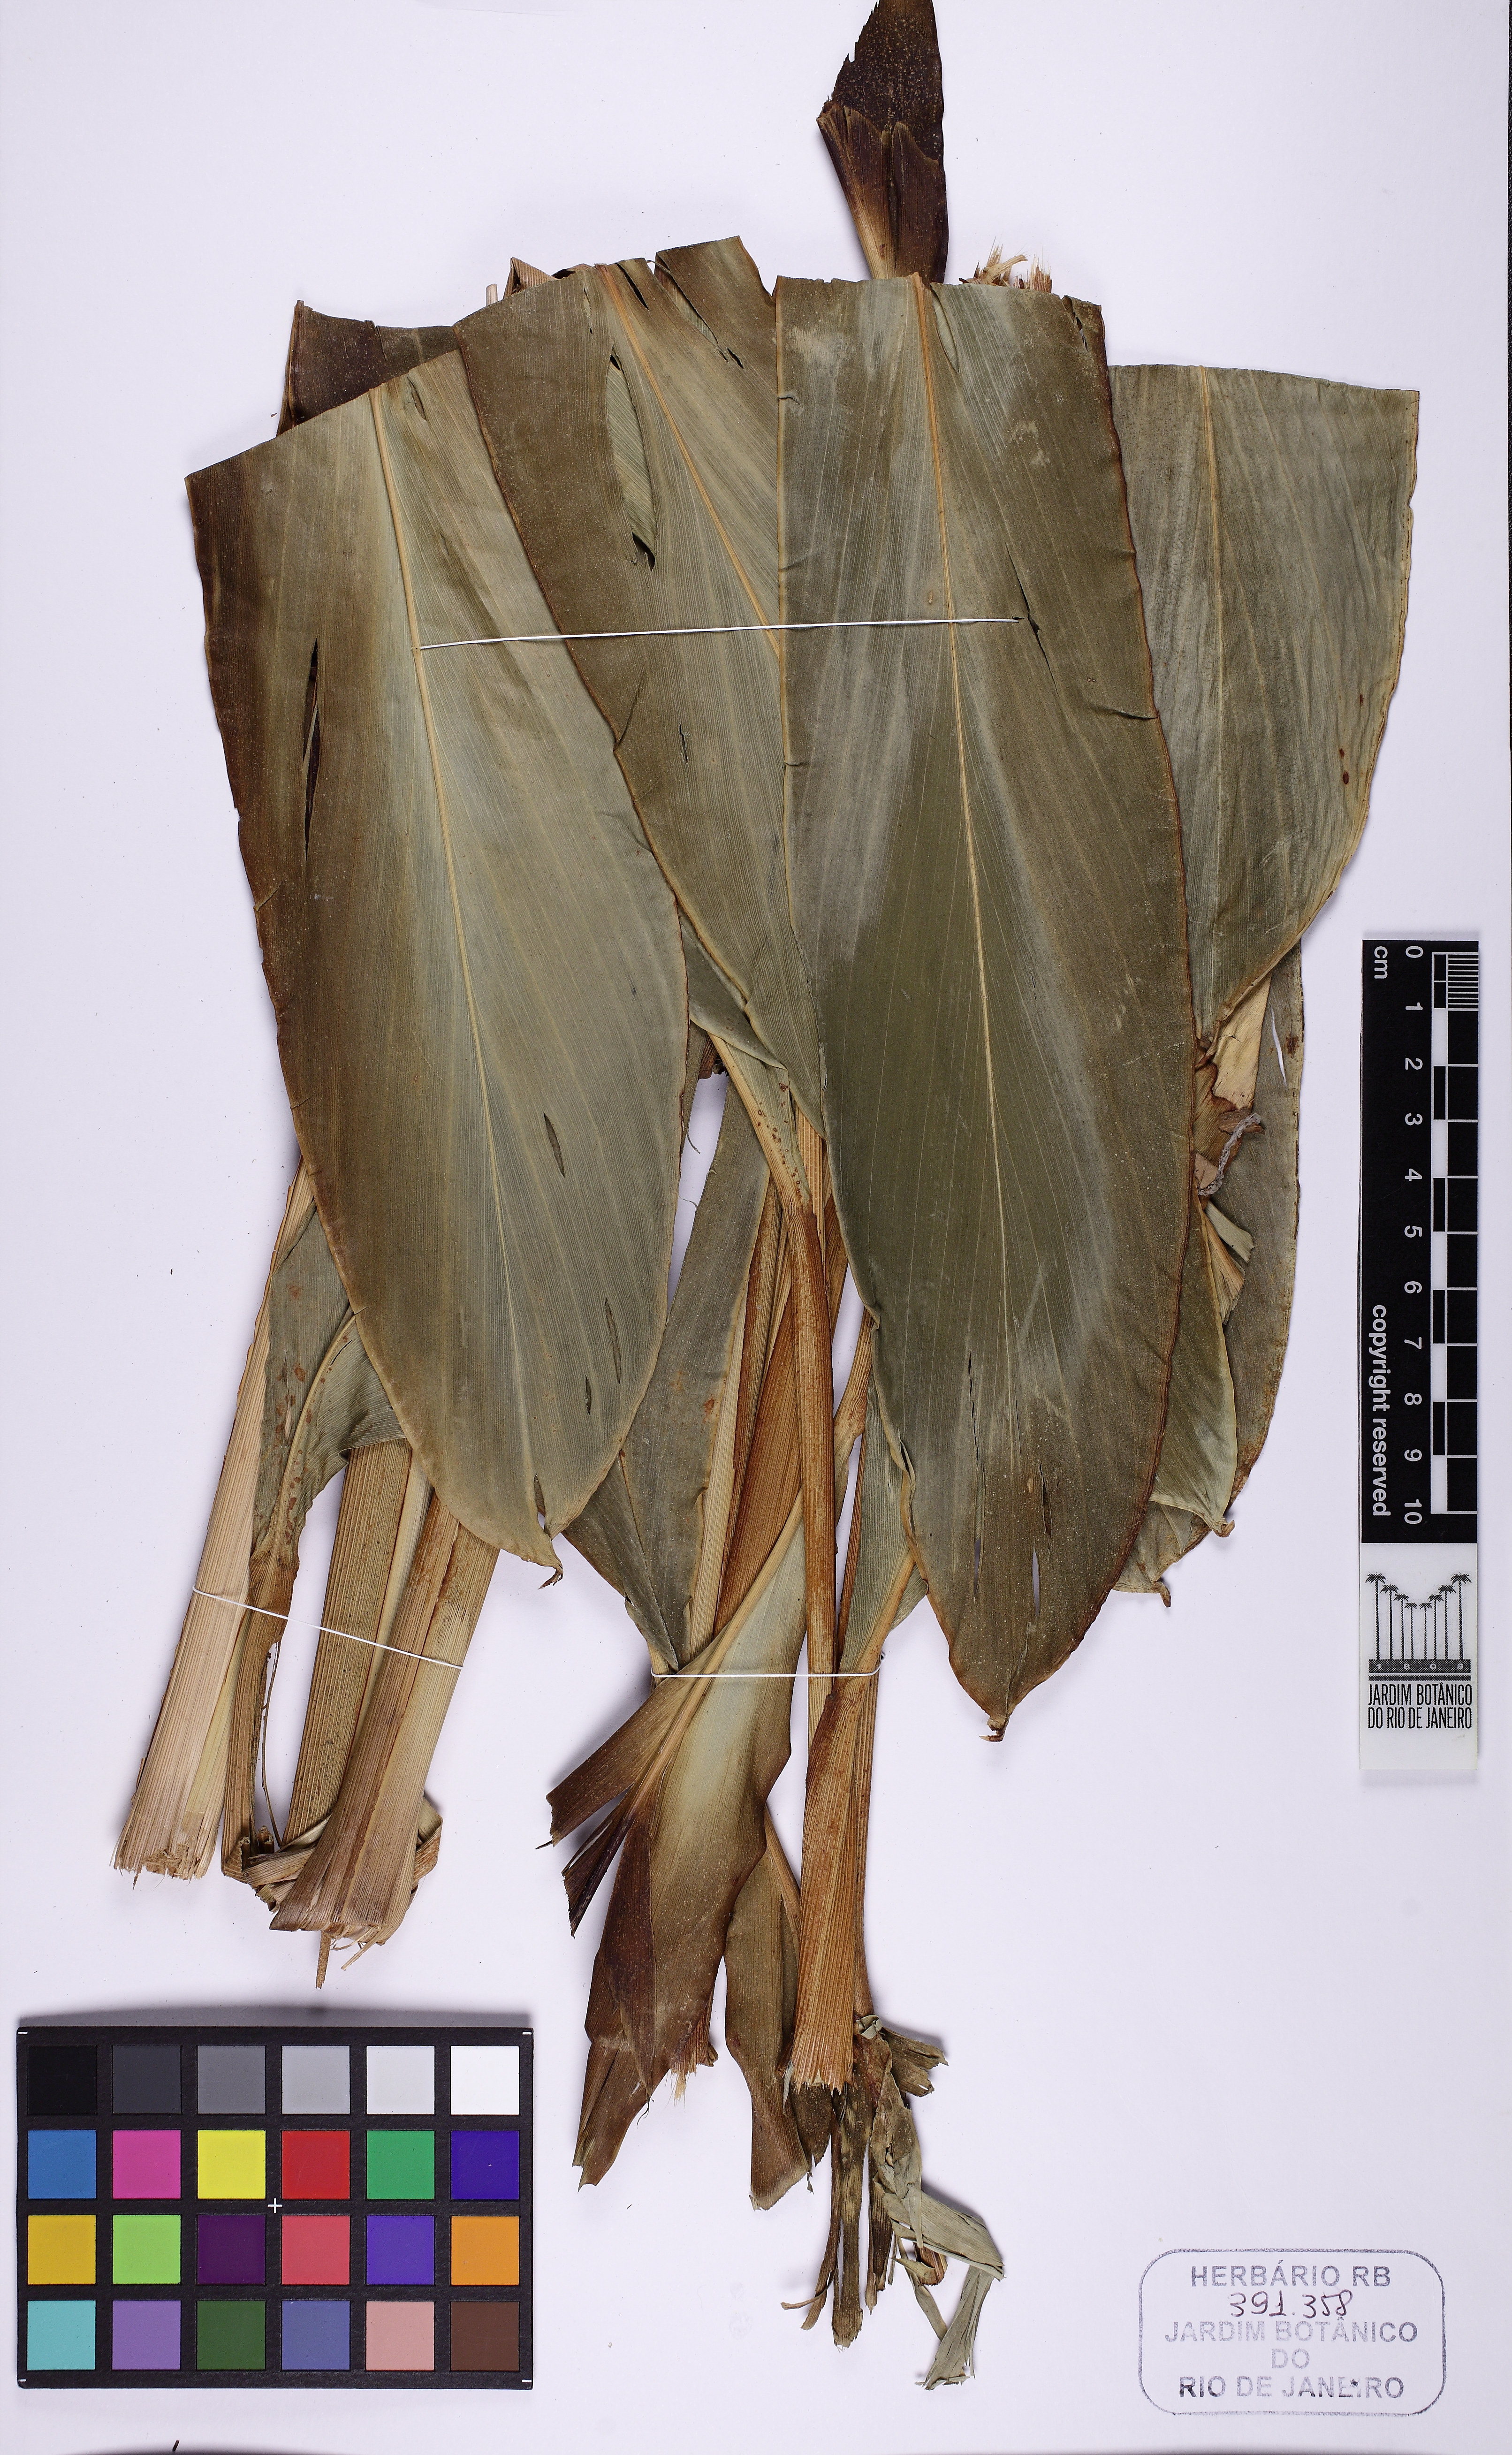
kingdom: Plantae
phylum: Tracheophyta
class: Liliopsida
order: Zingiberales
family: Zingiberaceae
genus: Renealmia
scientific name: Renealmia chrysotricha
